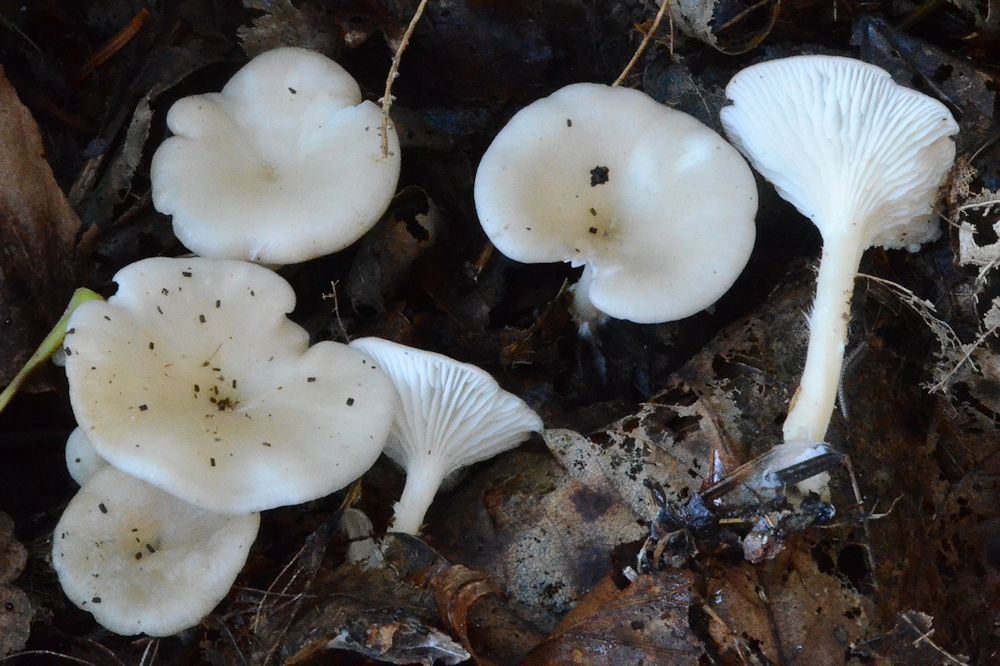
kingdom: Fungi
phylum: Basidiomycota
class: Agaricomycetes
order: Agaricales
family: Tricholomataceae
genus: Clitocybe
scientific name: Clitocybe phaeophthalma
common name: stinkende tragthat
